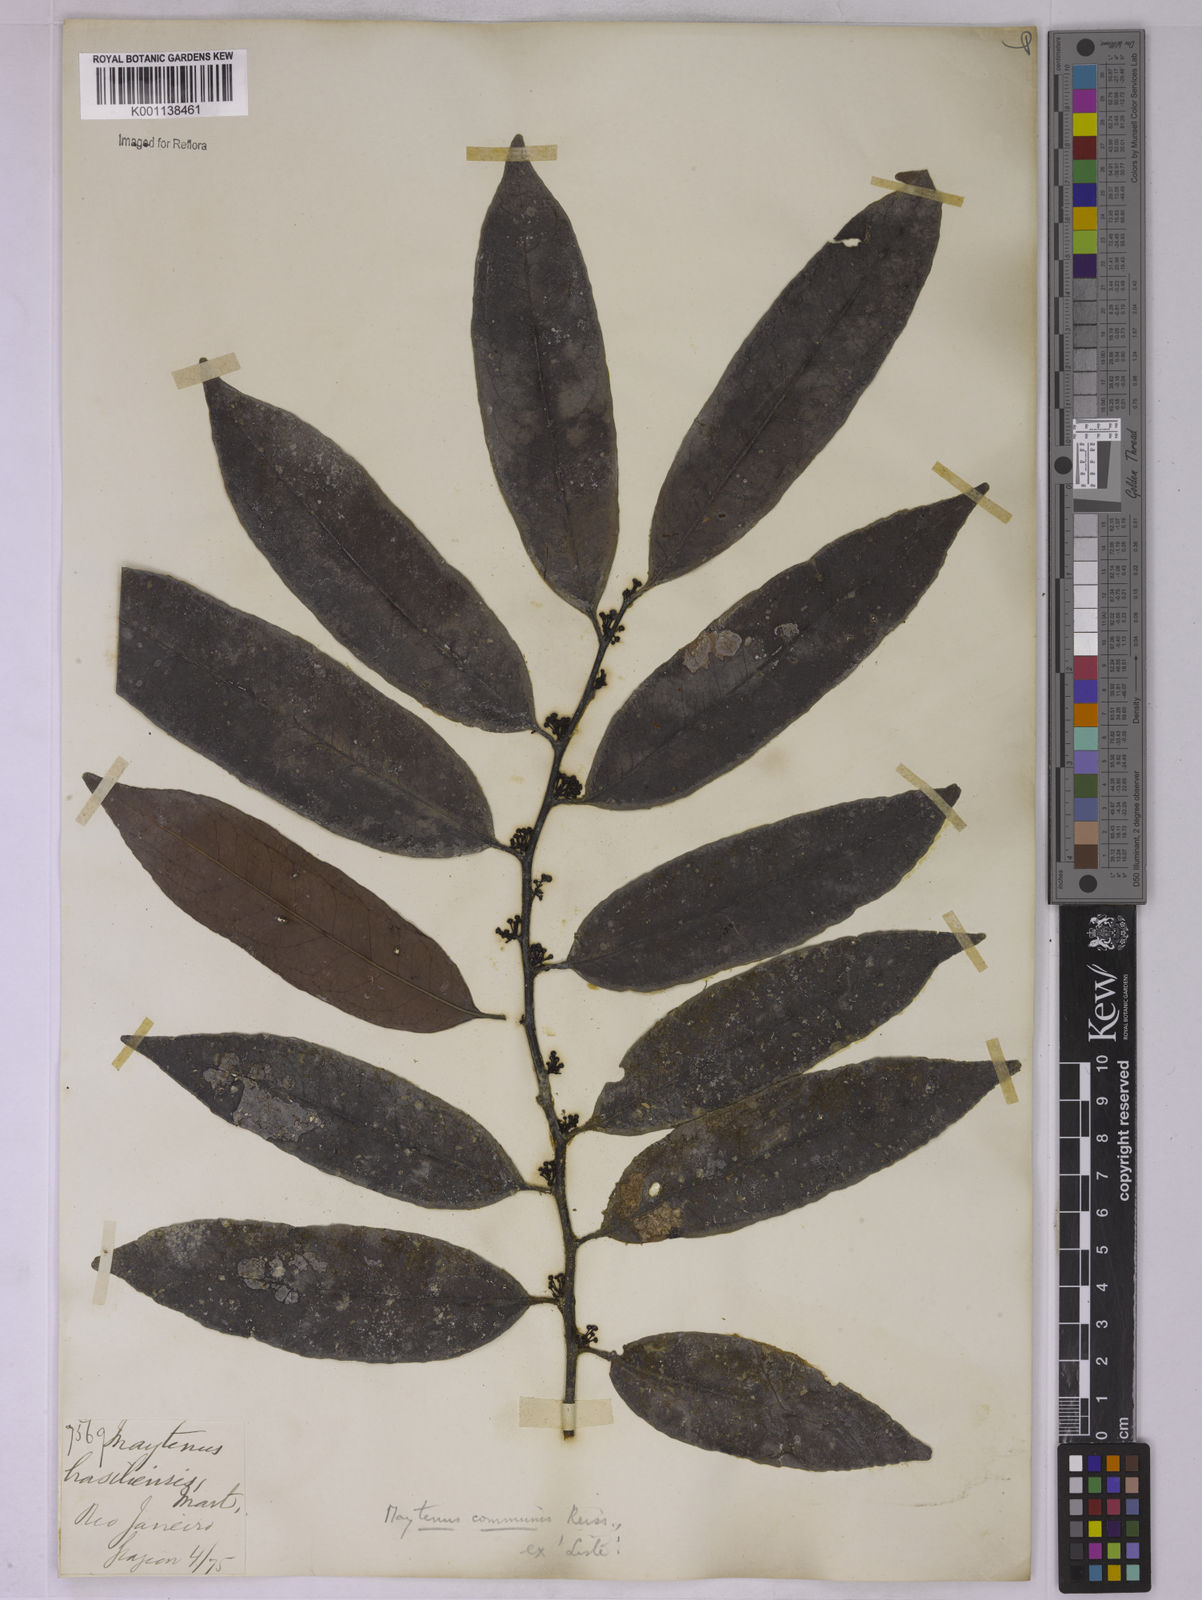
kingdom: Plantae
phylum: Tracheophyta
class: Magnoliopsida
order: Celastrales
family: Celastraceae
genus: Monteverdia
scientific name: Monteverdia communis
